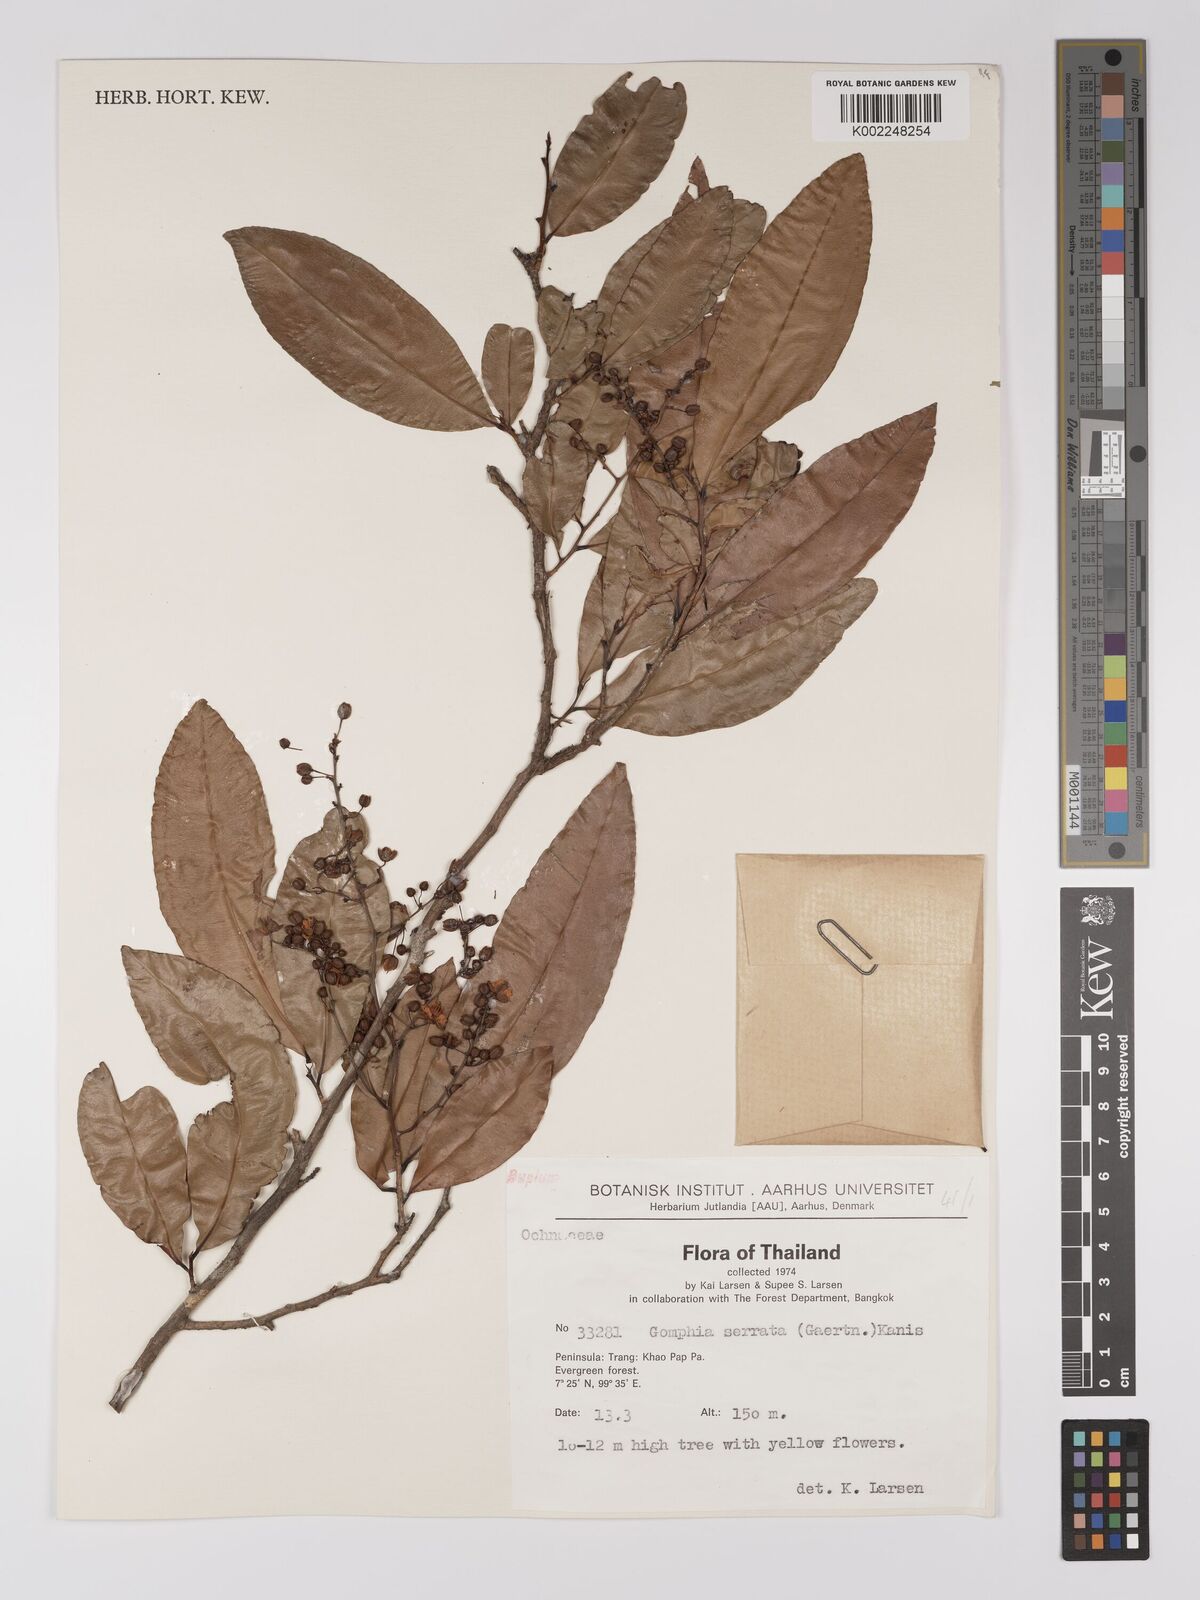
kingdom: Plantae
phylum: Tracheophyta
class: Magnoliopsida
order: Malpighiales
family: Ochnaceae
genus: Gomphia
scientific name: Gomphia serrata
